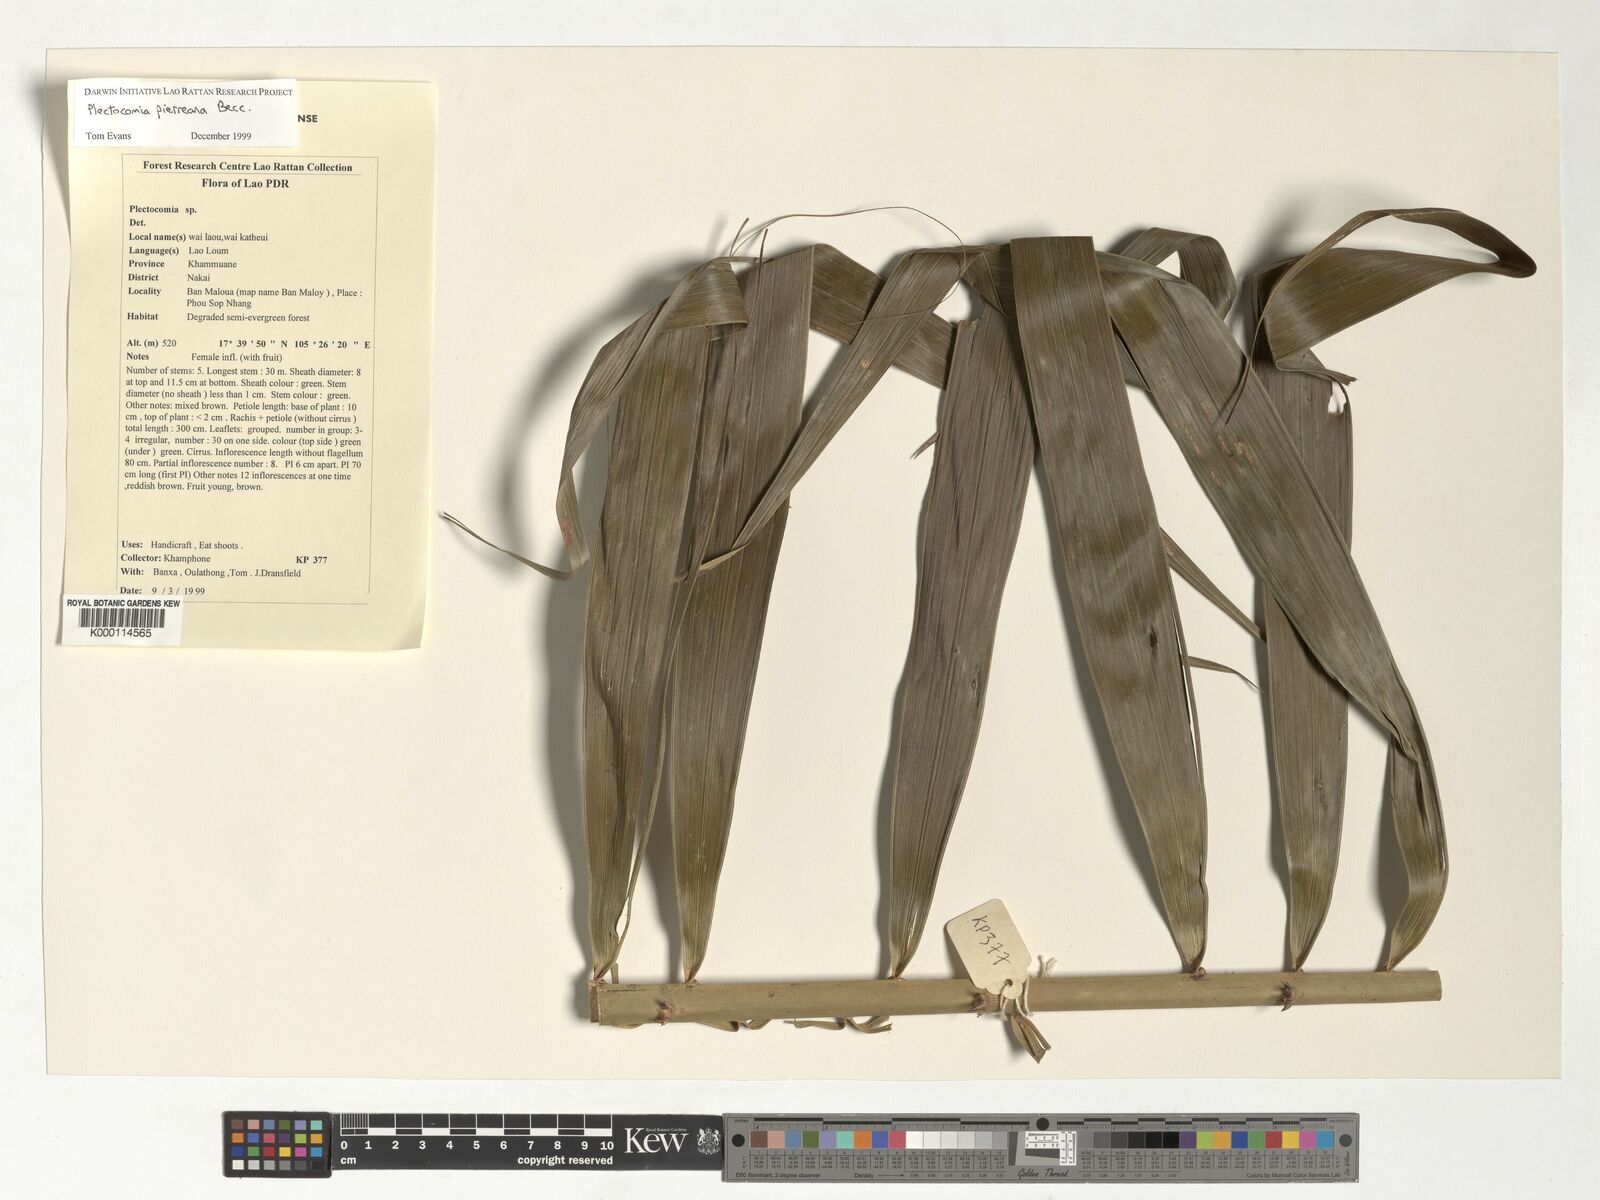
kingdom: Plantae
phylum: Tracheophyta
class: Liliopsida
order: Arecales
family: Arecaceae
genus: Plectocomia
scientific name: Plectocomia pierreana
